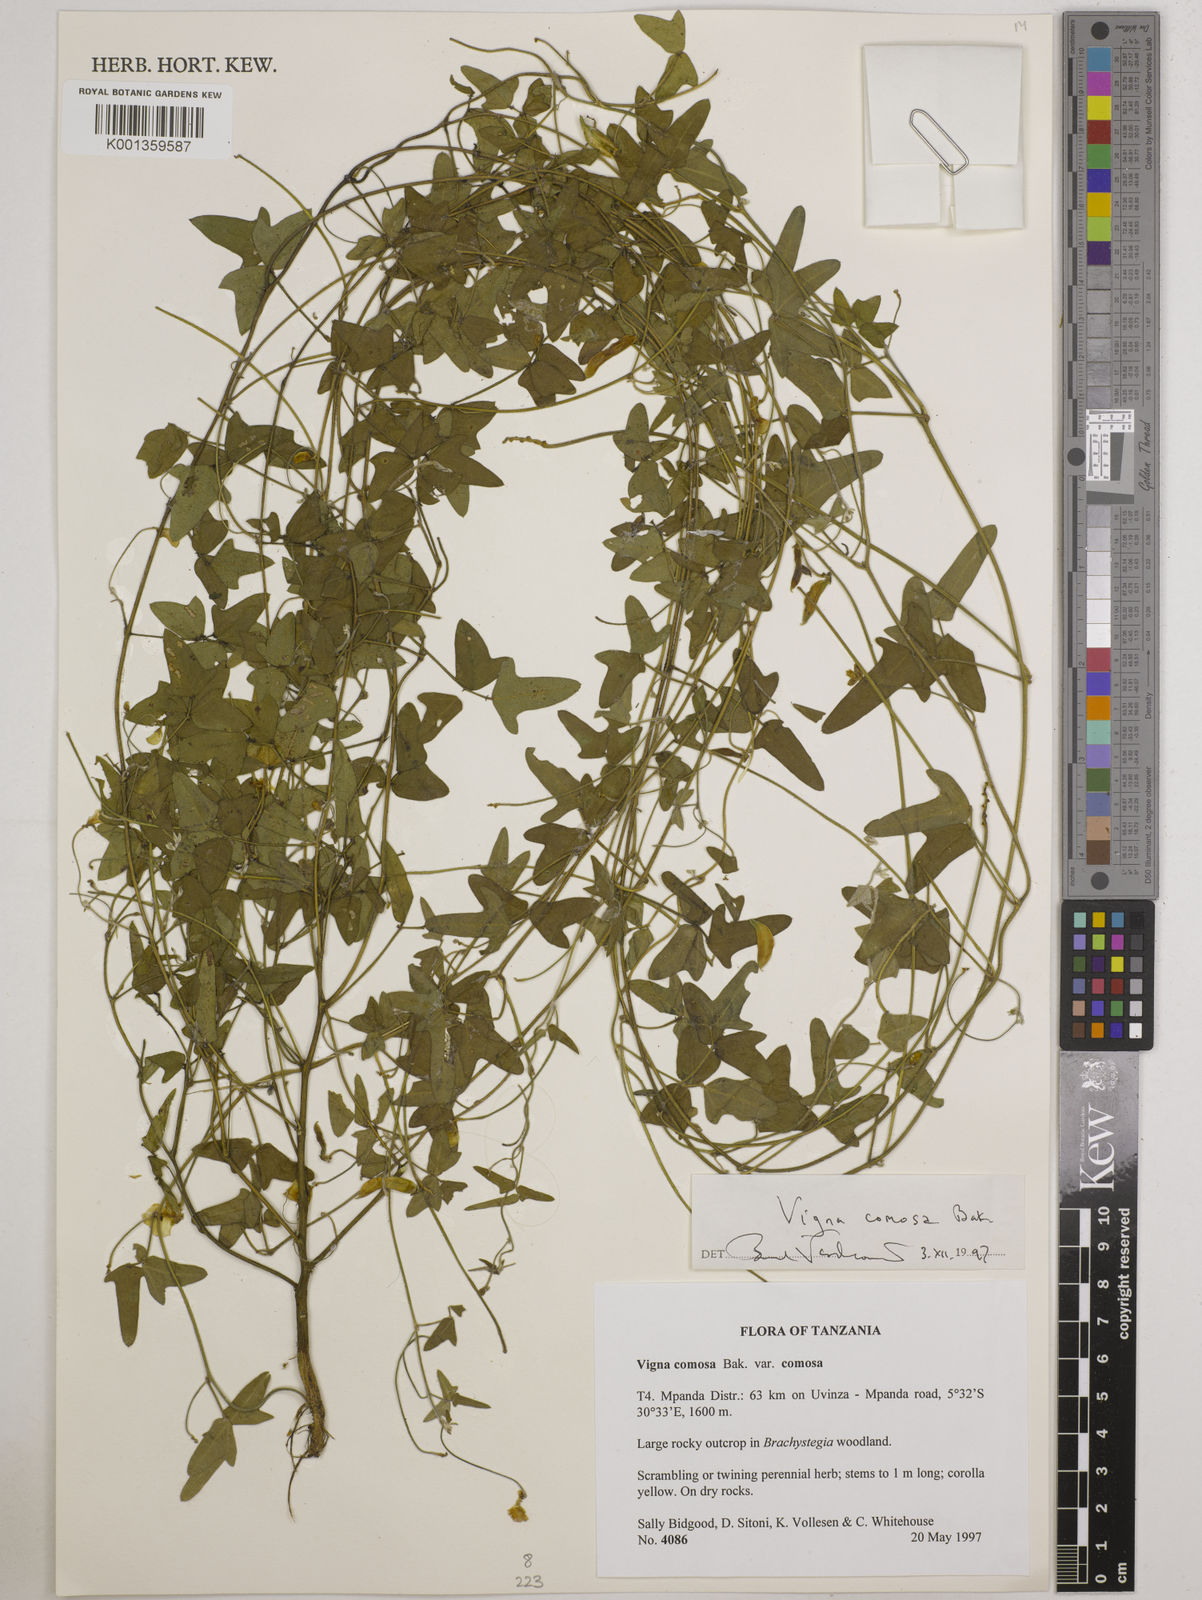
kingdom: Plantae
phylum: Tracheophyta
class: Magnoliopsida
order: Fabales
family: Fabaceae
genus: Vigna
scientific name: Vigna comosa
